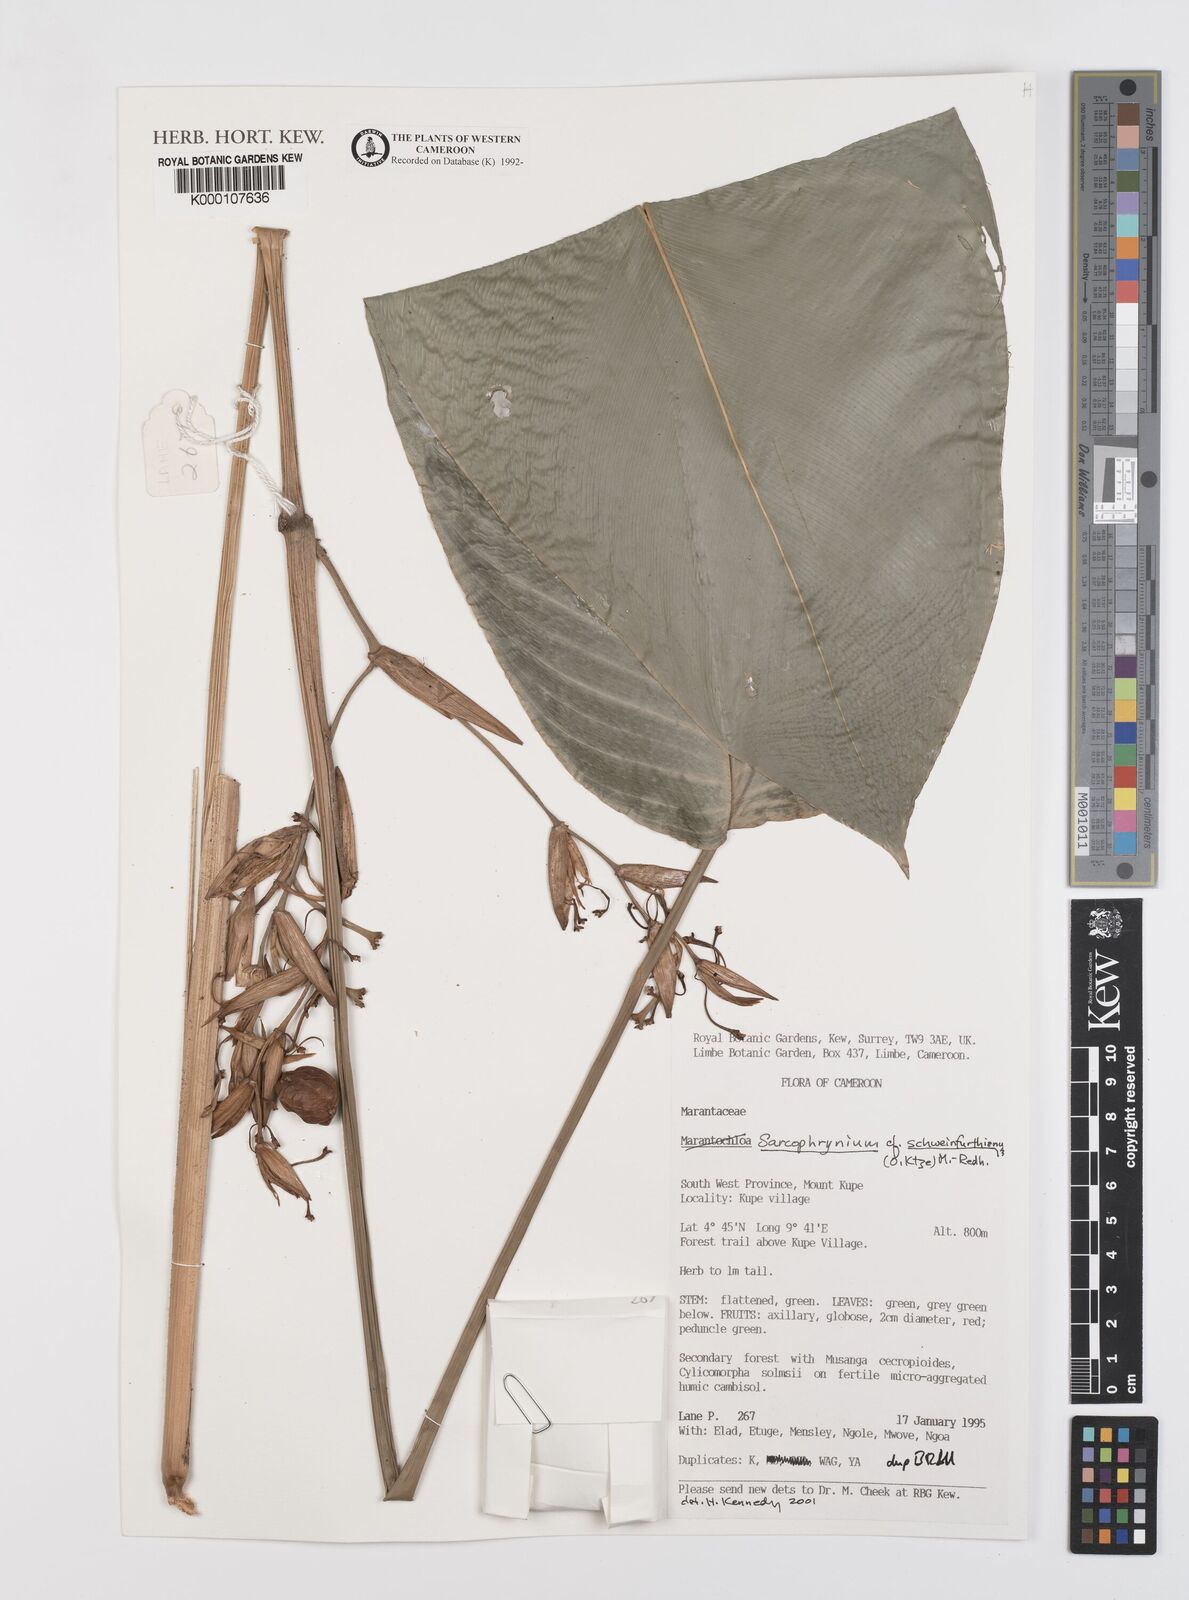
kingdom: Plantae
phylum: Tracheophyta
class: Liliopsida
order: Zingiberales
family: Marantaceae
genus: Sarcophrynium
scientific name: Sarcophrynium schweinfurthianum
